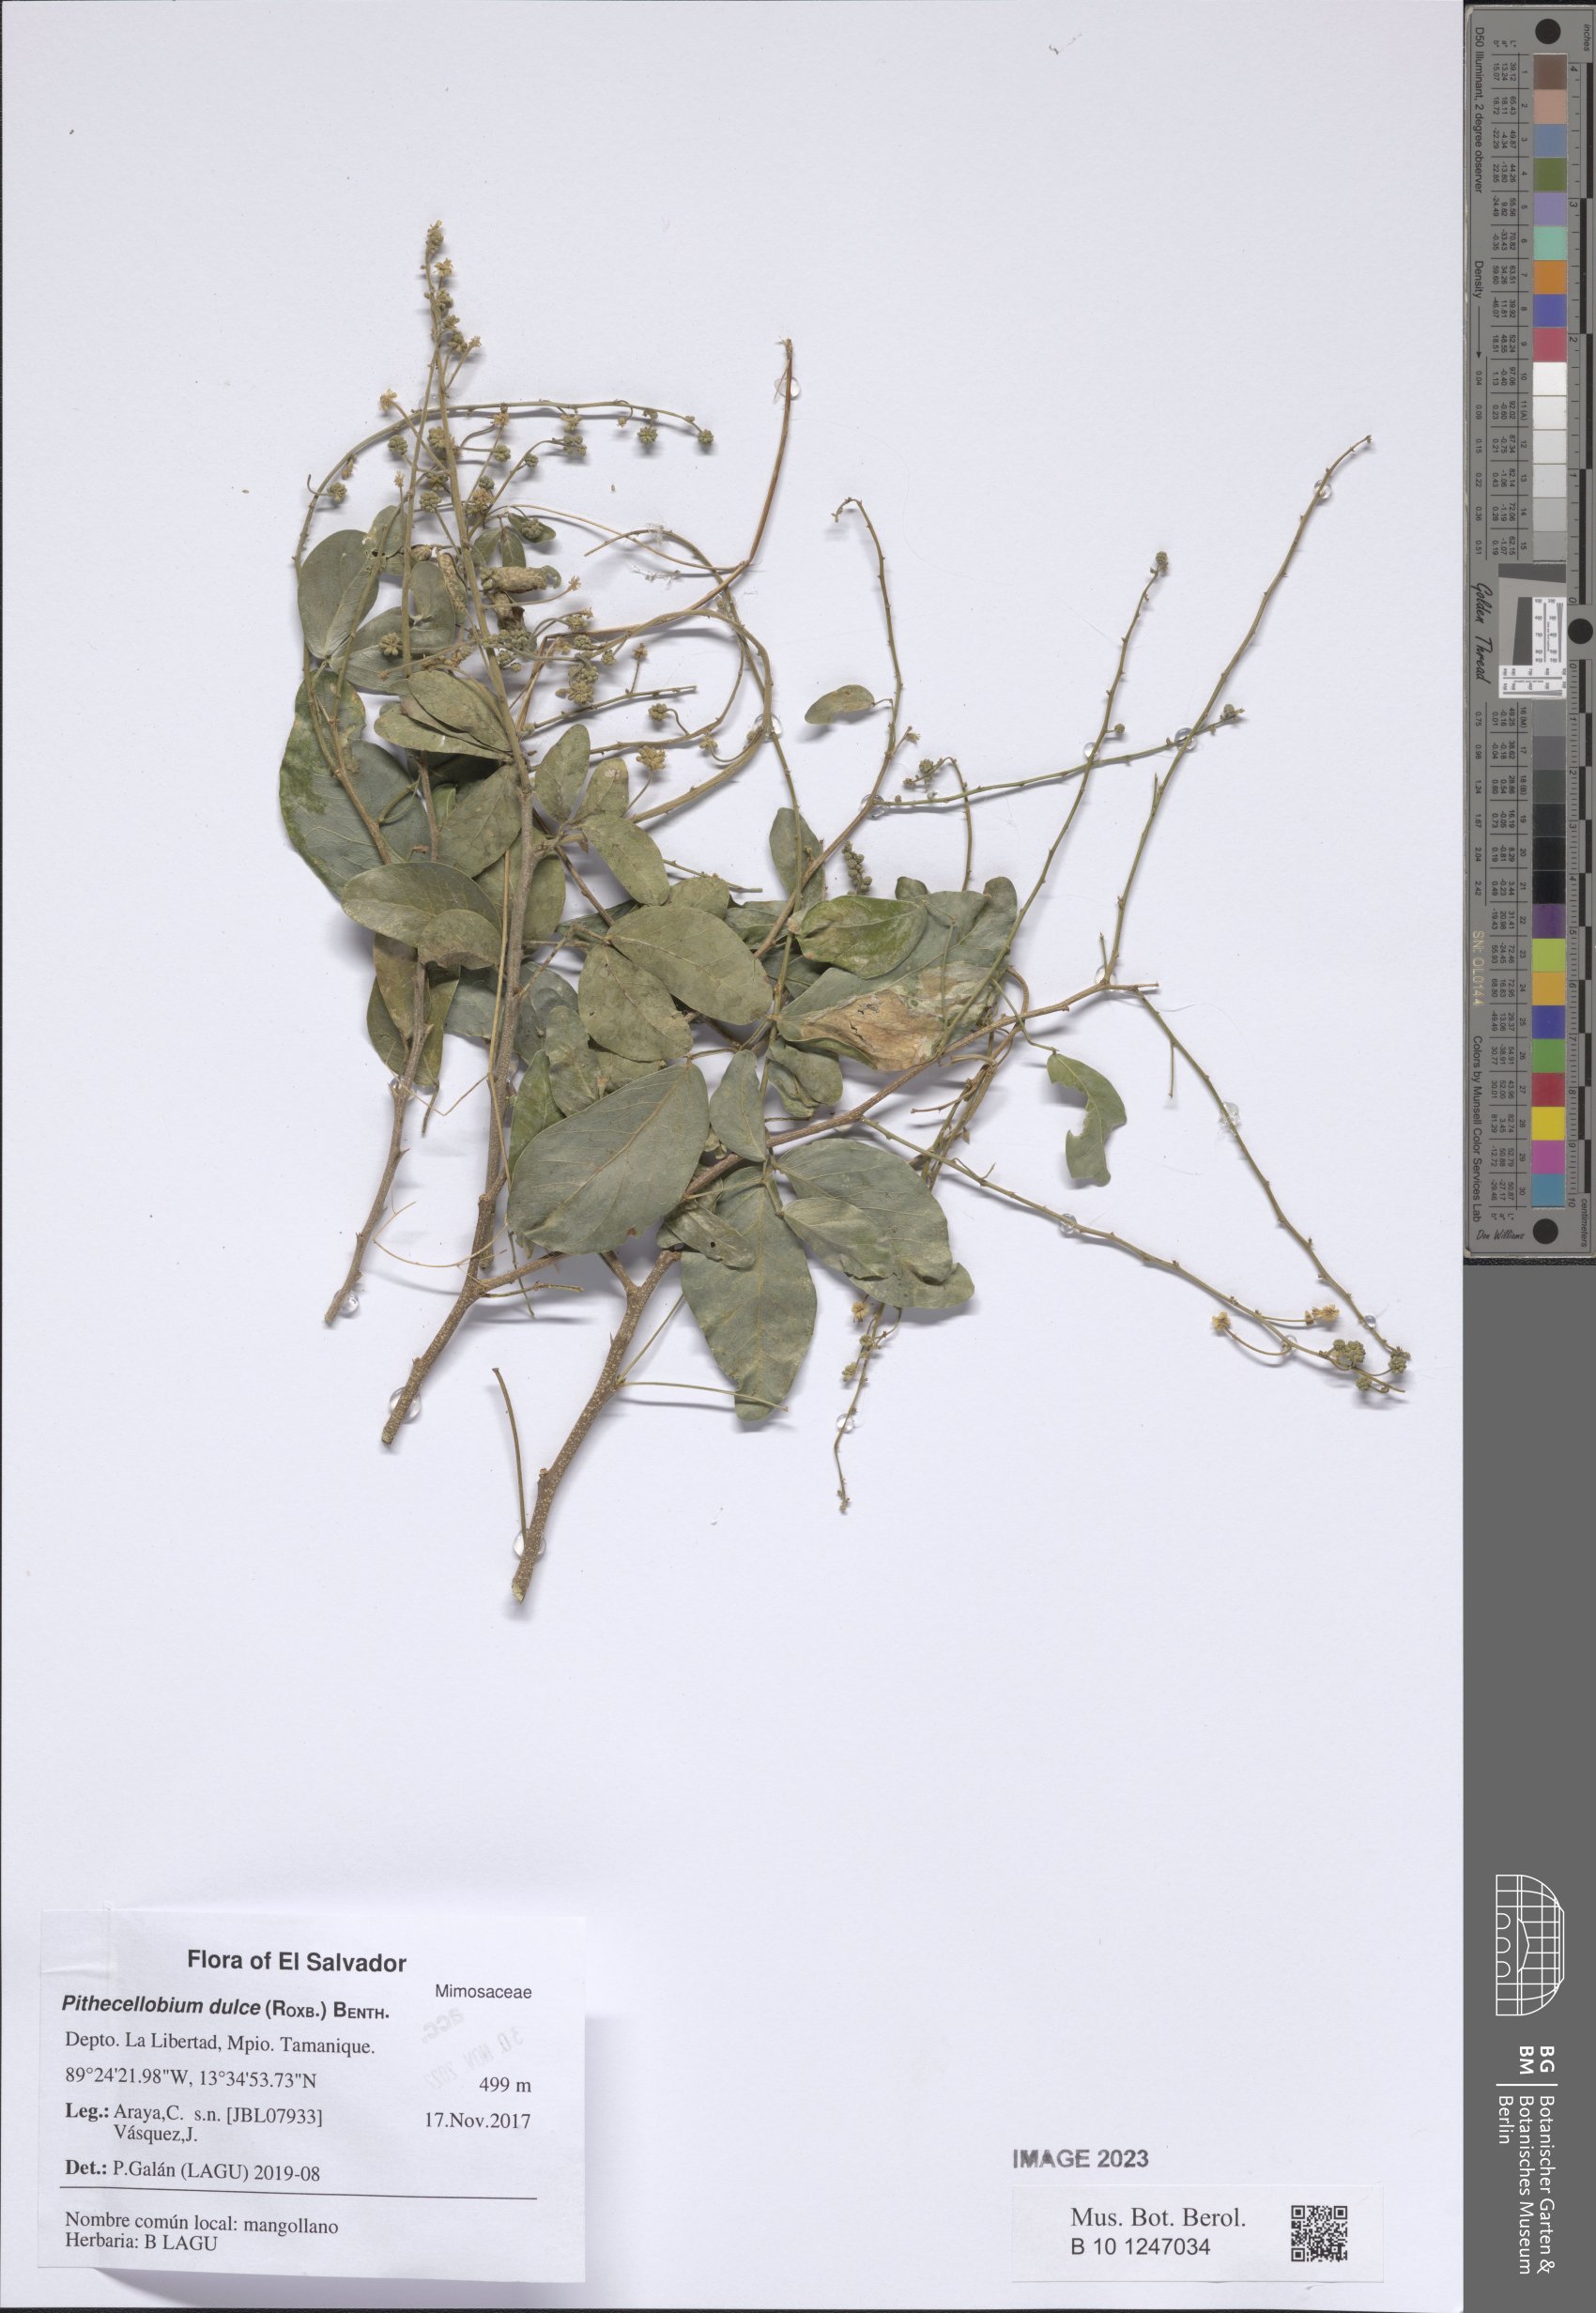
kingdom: Plantae
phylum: Tracheophyta
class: Magnoliopsida
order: Fabales
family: Fabaceae
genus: Pithecellobium
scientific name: Pithecellobium dulce
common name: Monkeypod
